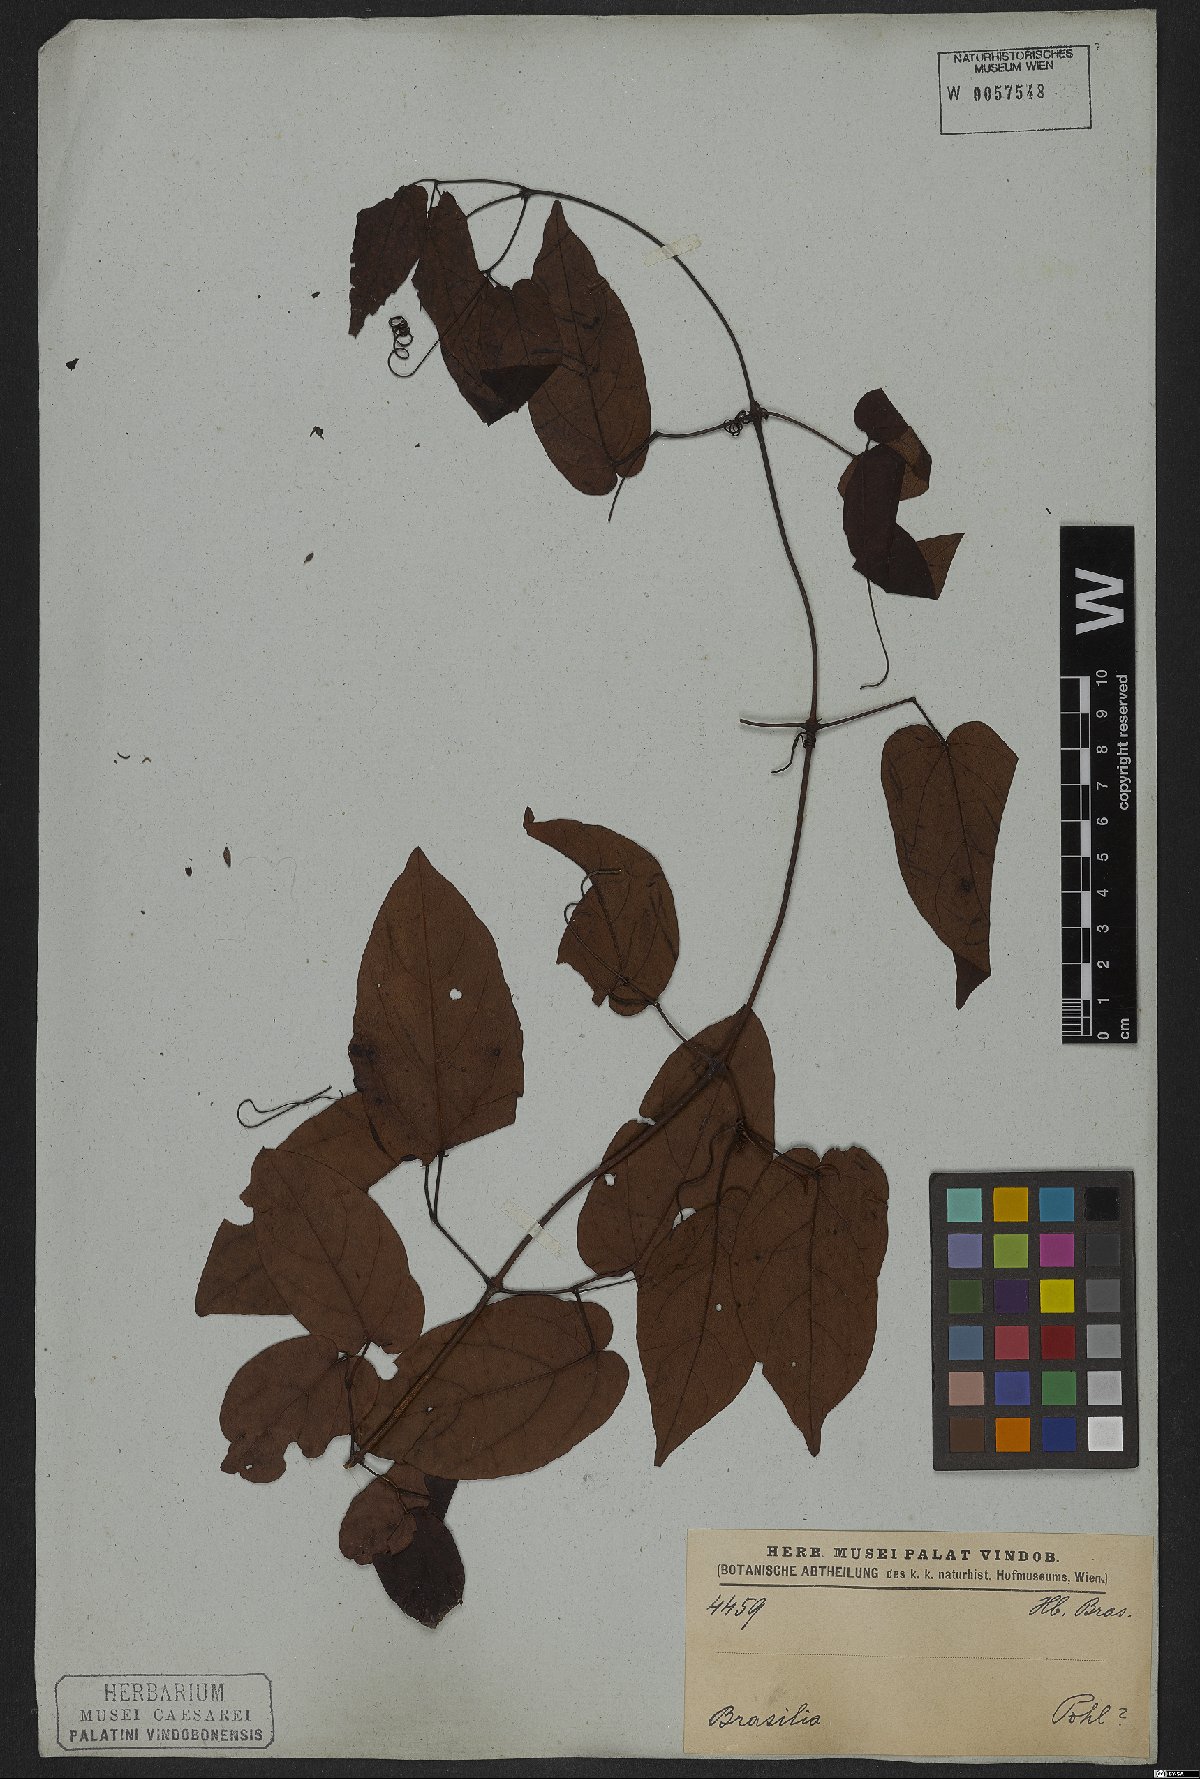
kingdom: Plantae
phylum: Tracheophyta
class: Magnoliopsida
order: Rosales
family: Rhamnaceae
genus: Arrabidaea
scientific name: Arrabidaea
